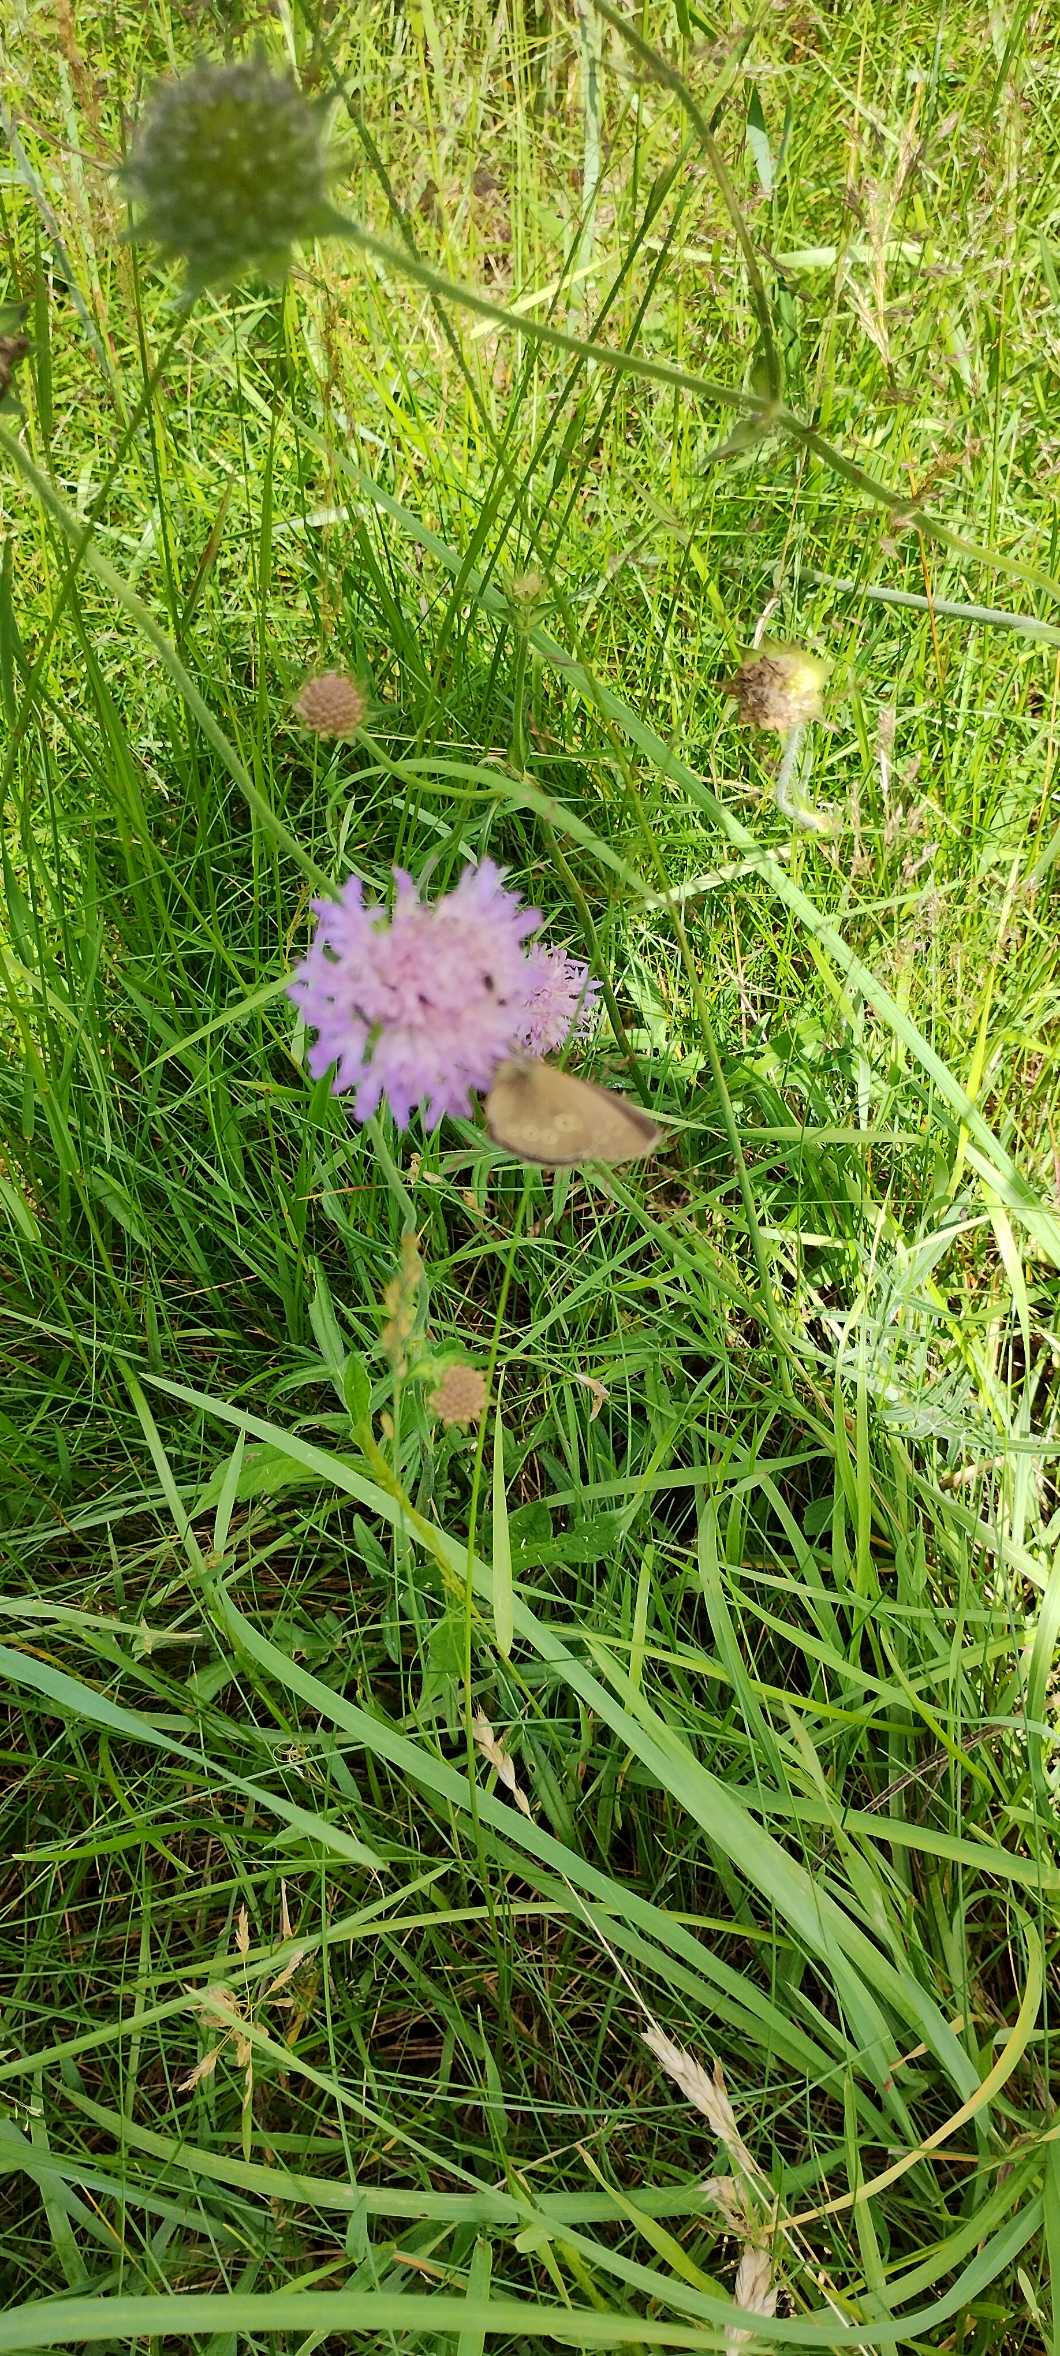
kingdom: Animalia
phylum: Arthropoda
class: Insecta
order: Lepidoptera
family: Nymphalidae
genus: Aphantopus
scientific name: Aphantopus hyperantus
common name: Engrandøje
